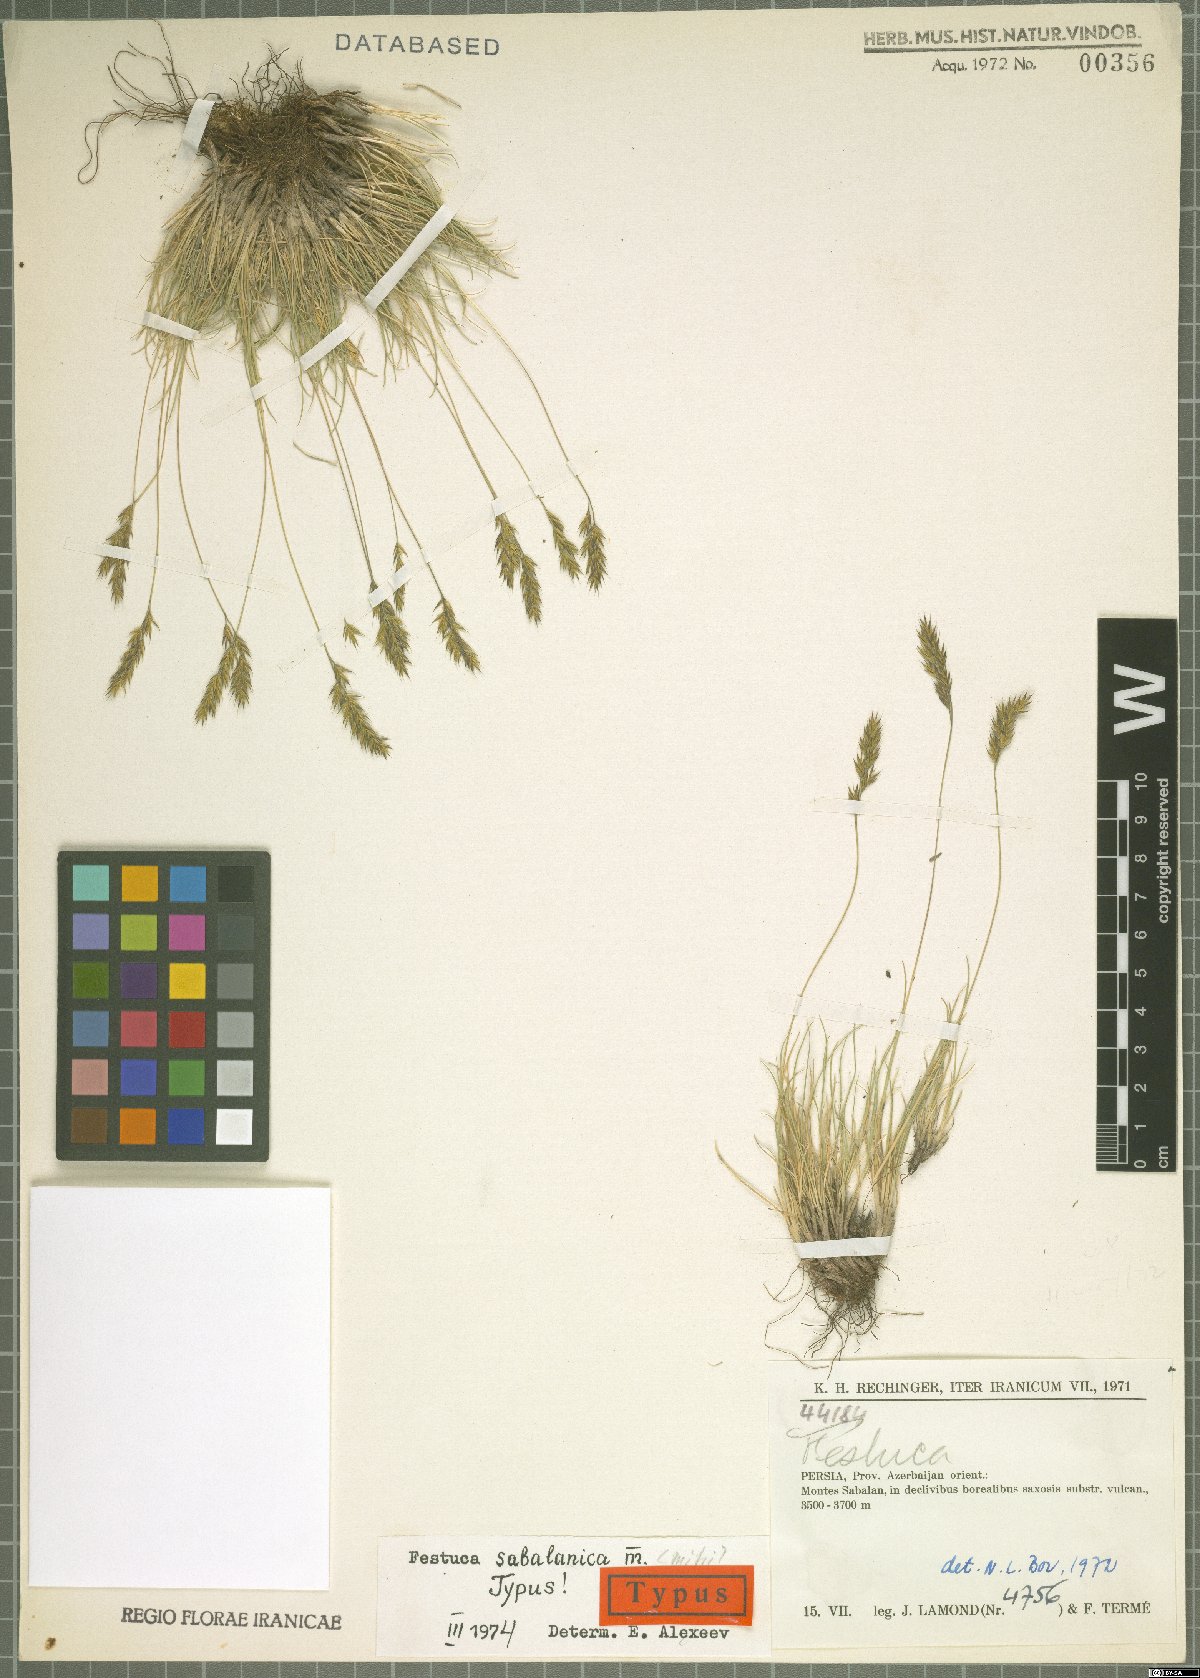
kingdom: Plantae
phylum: Tracheophyta
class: Liliopsida
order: Poales
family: Poaceae
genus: Festuca
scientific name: Festuca sabalanica
